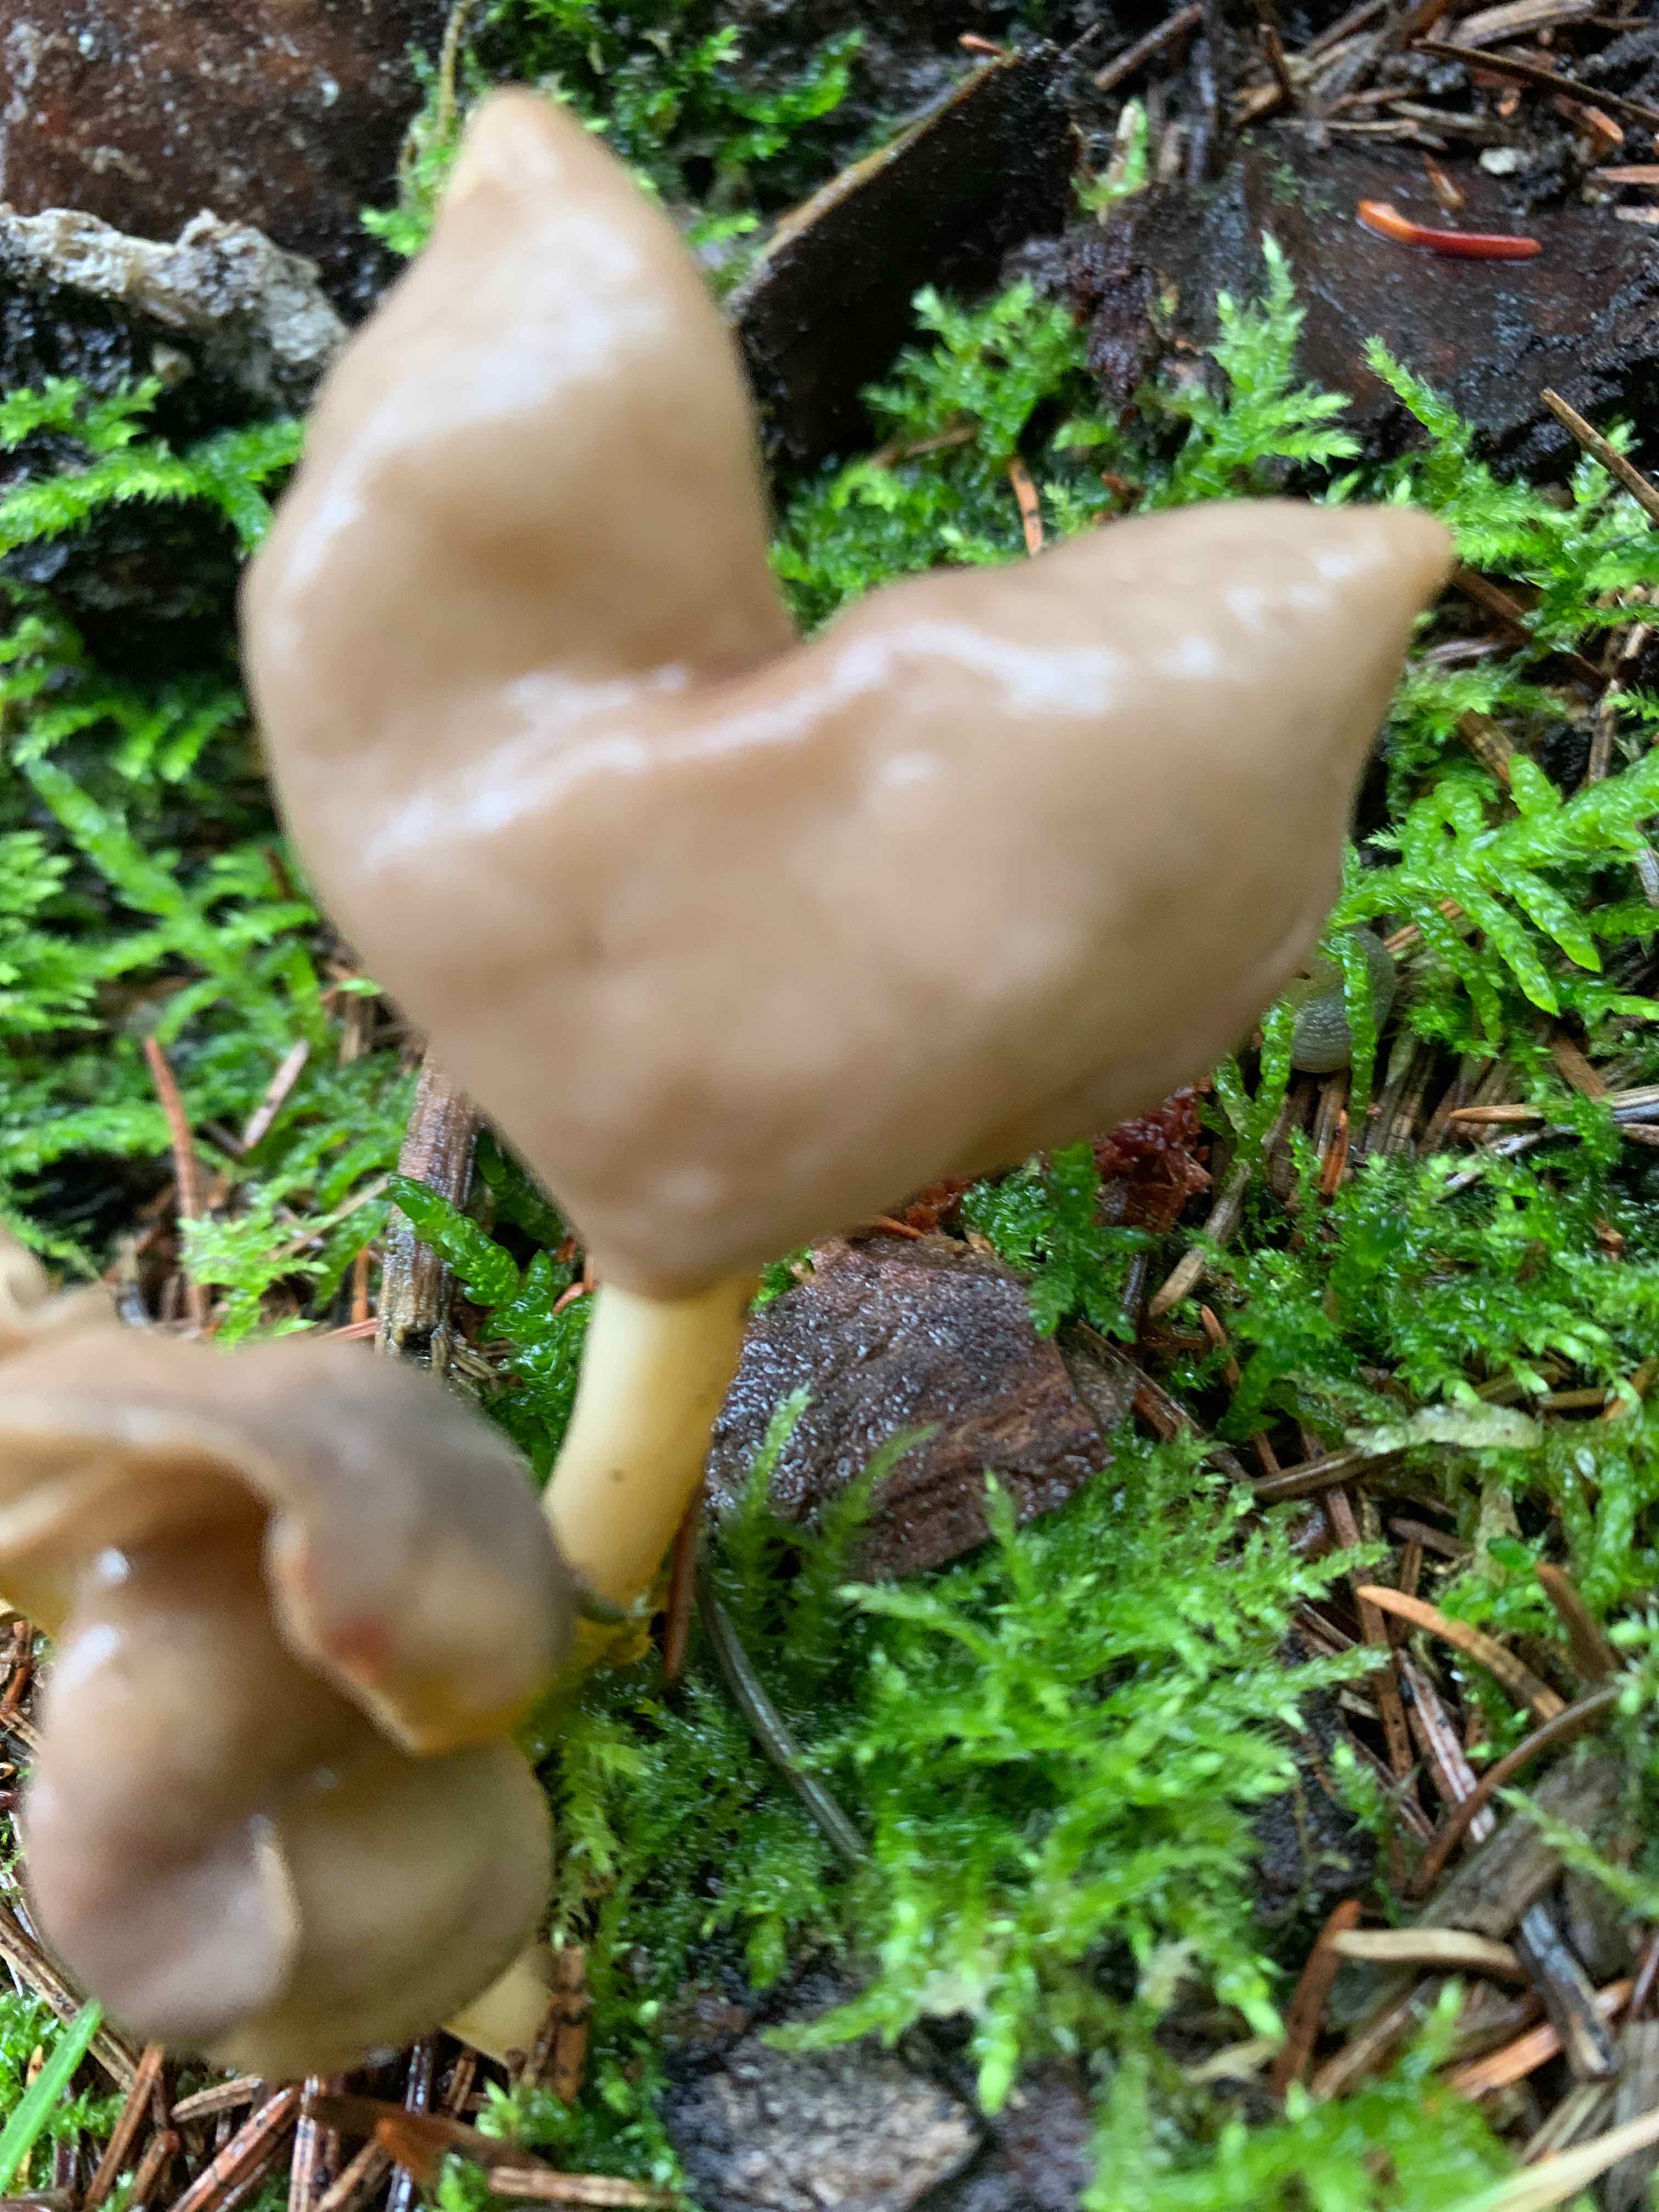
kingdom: Fungi
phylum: Ascomycota
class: Pezizomycetes
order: Pezizales
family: Helvellaceae
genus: Helvella
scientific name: Helvella elastica
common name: elastik-foldhat
